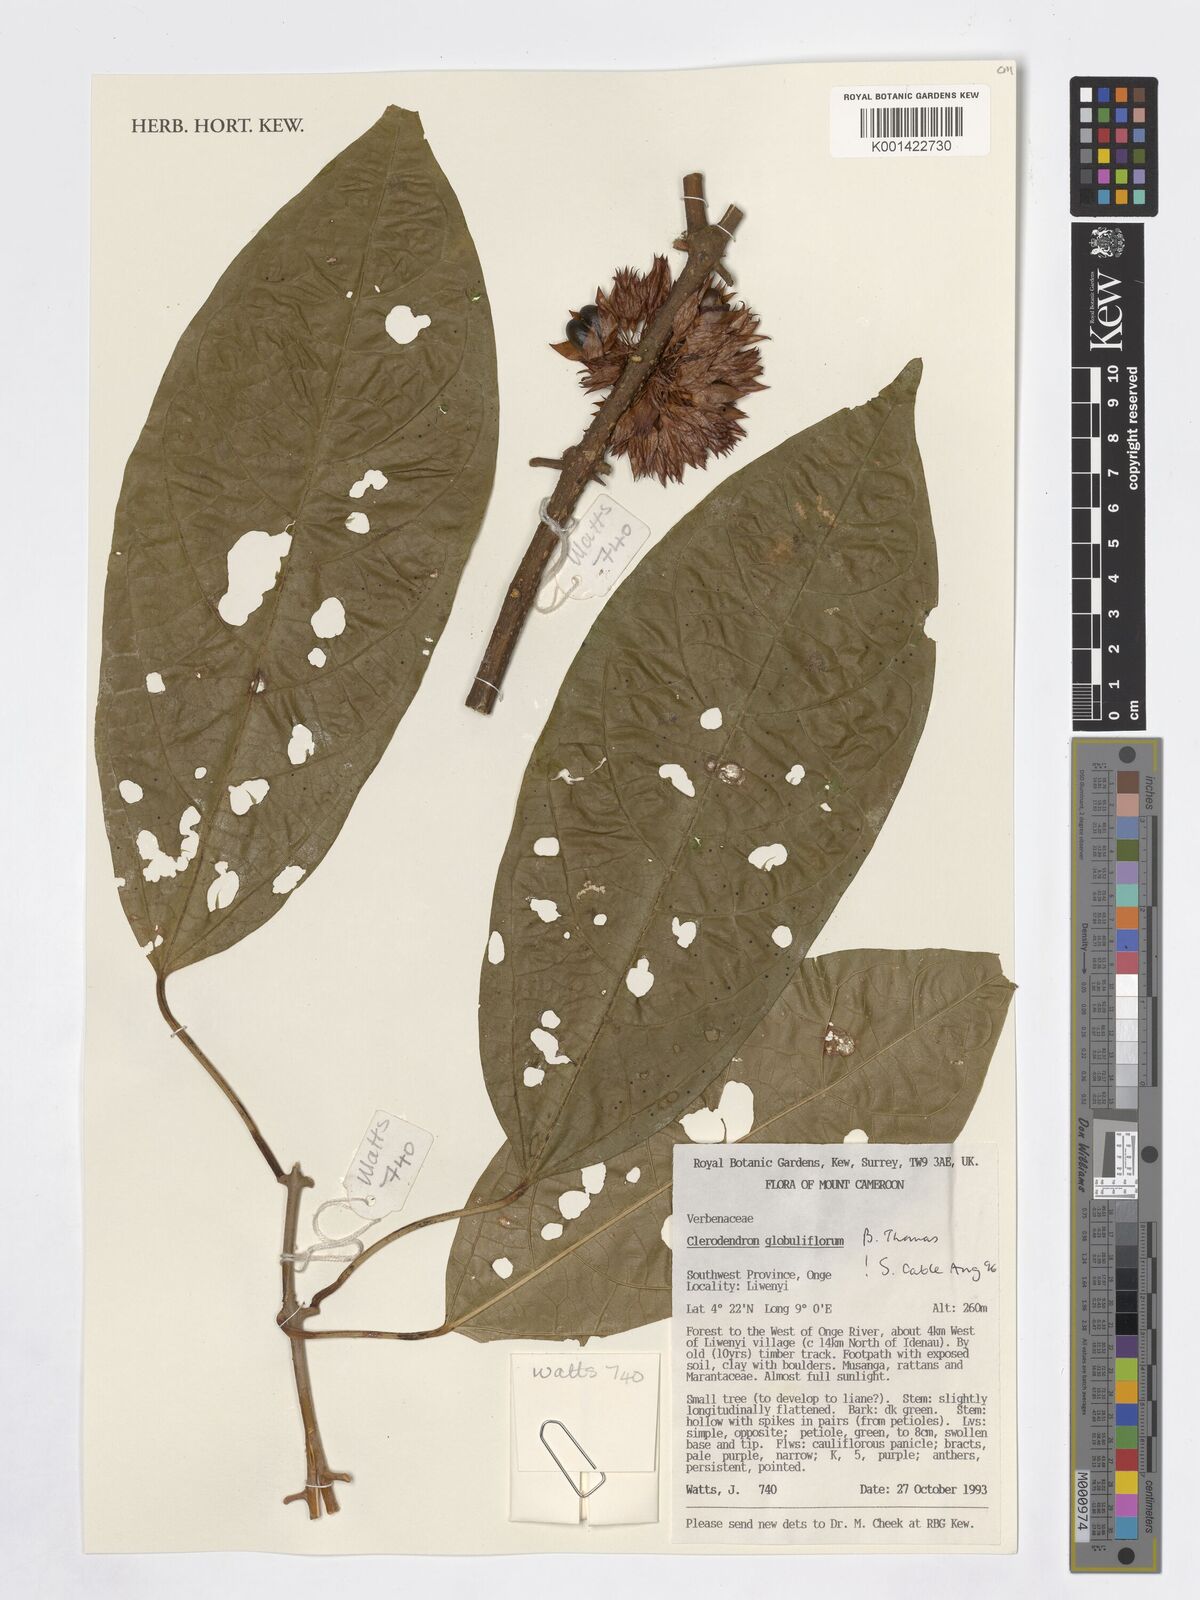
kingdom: Plantae
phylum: Tracheophyta
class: Magnoliopsida
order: Lamiales
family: Verbenaceae
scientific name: Verbenaceae
